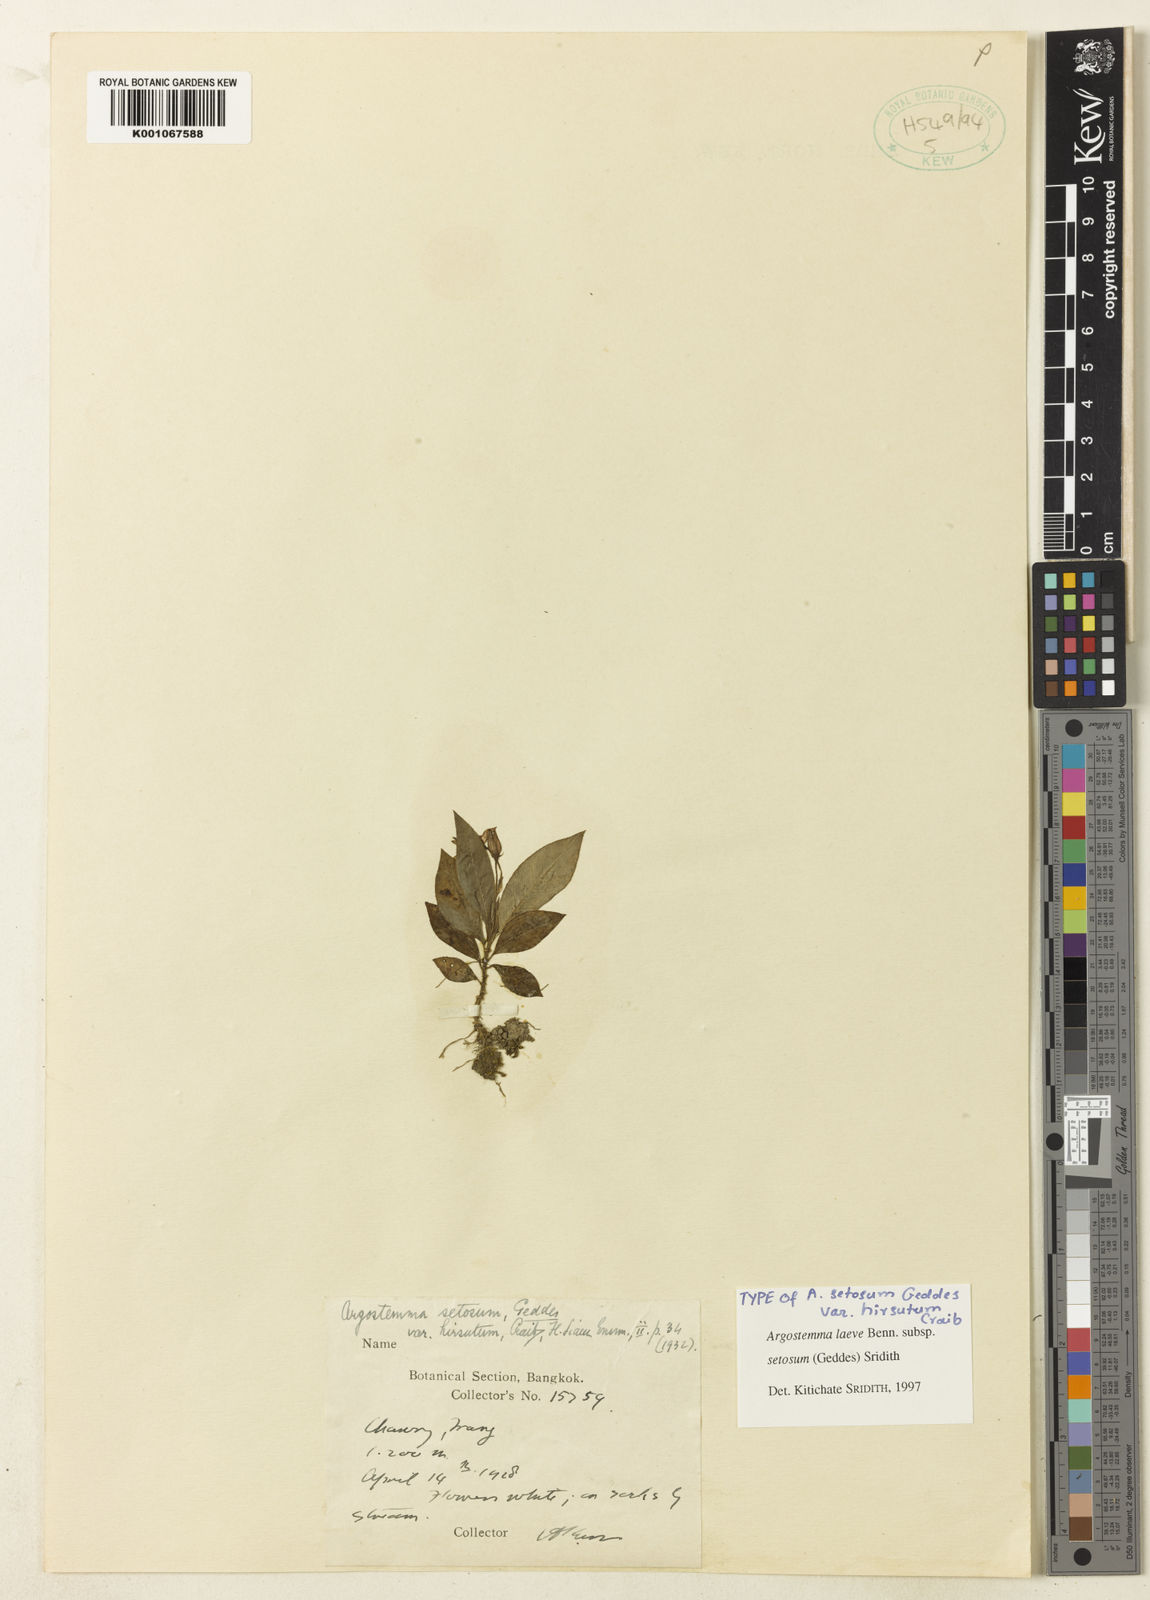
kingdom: Plantae
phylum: Tracheophyta
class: Magnoliopsida
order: Gentianales
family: Rubiaceae
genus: Argostemma
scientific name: Argostemma laeve
